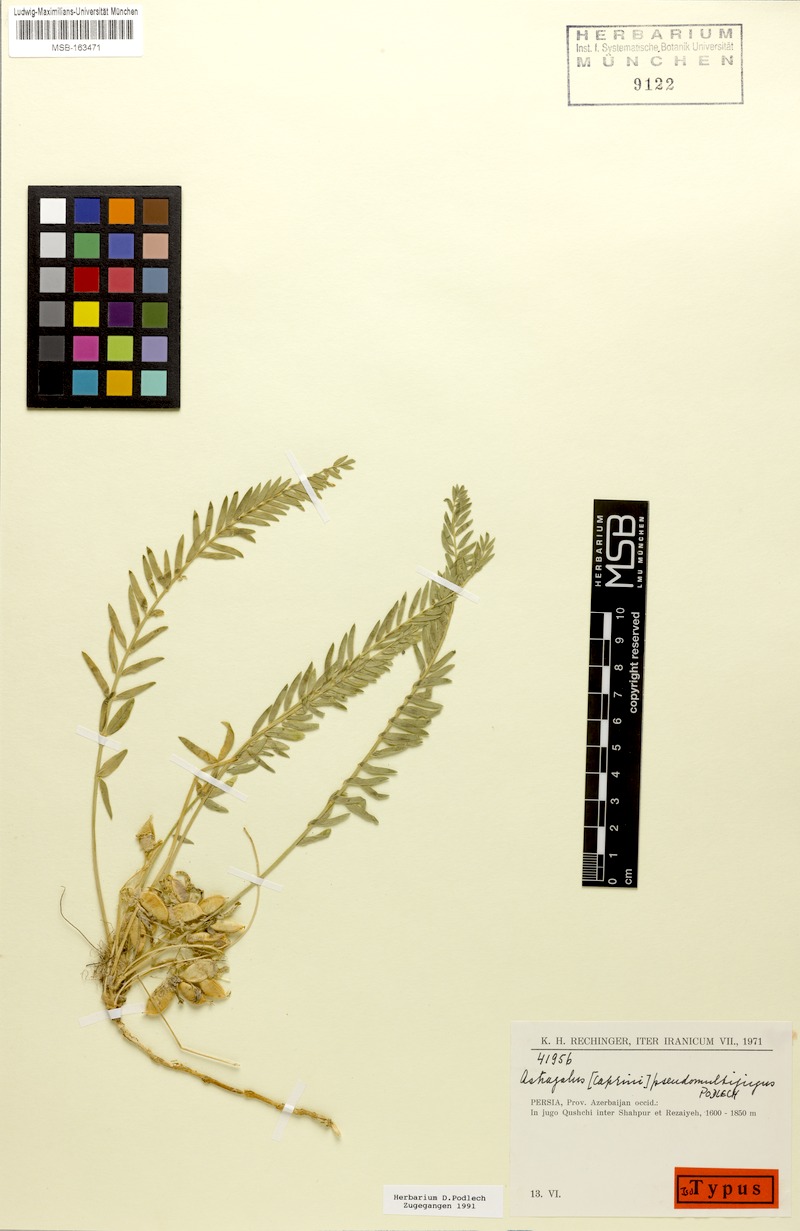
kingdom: Plantae
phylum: Tracheophyta
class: Magnoliopsida
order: Fabales
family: Fabaceae
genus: Astragalus
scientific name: Astragalus pseudomultijugus
